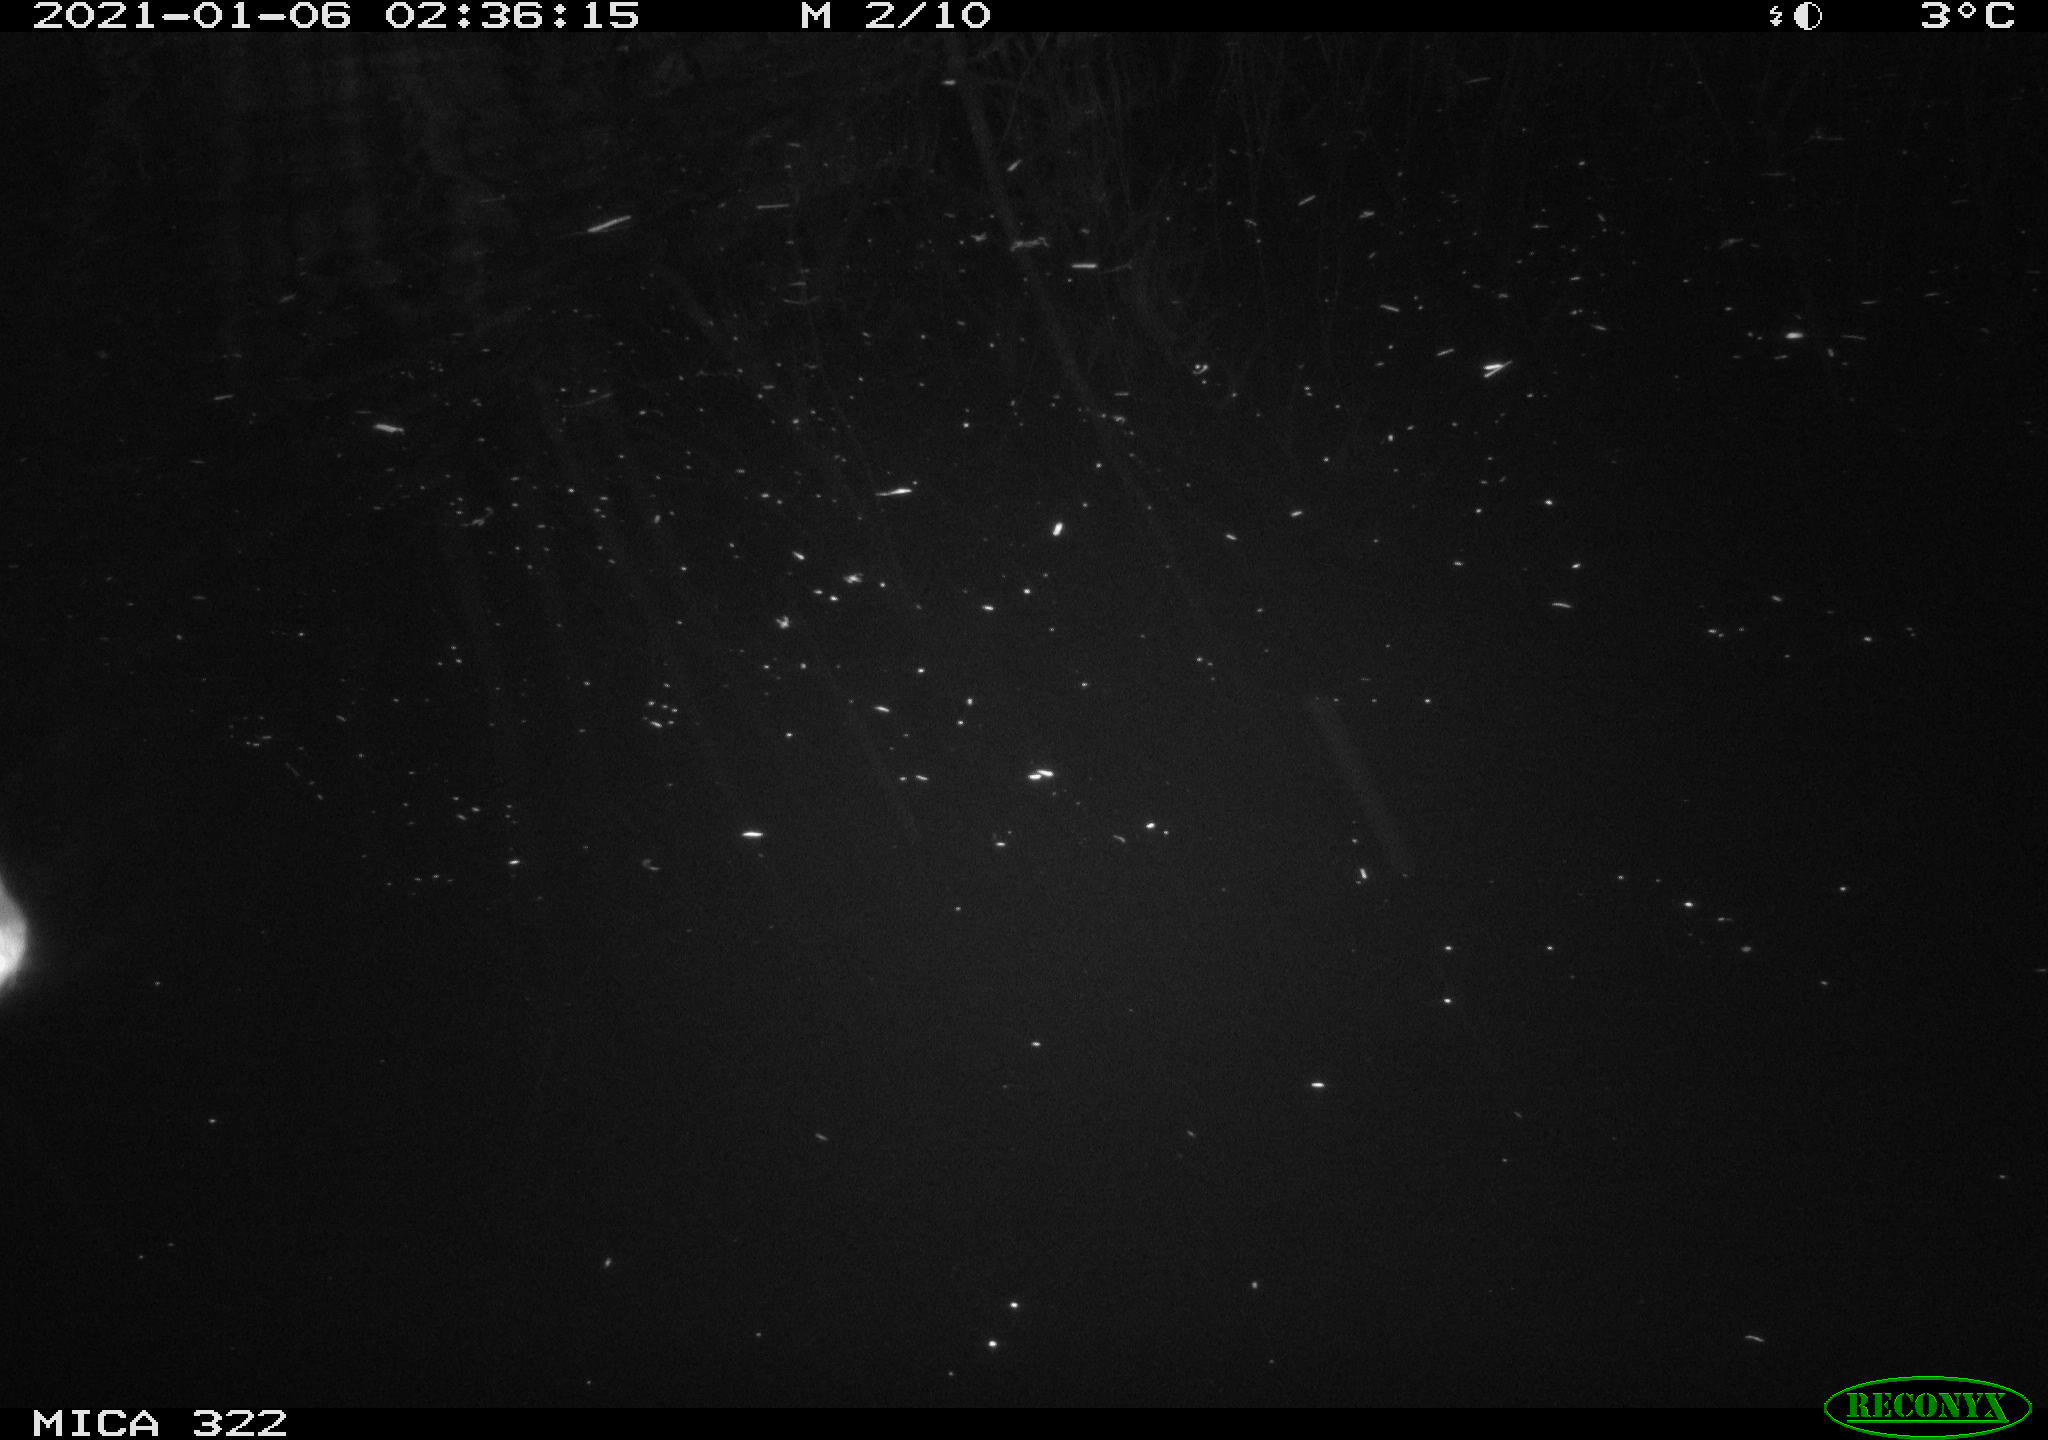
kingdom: Animalia
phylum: Chordata
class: Mammalia
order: Rodentia
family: Muridae
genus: Rattus
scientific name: Rattus norvegicus
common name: Brown rat
